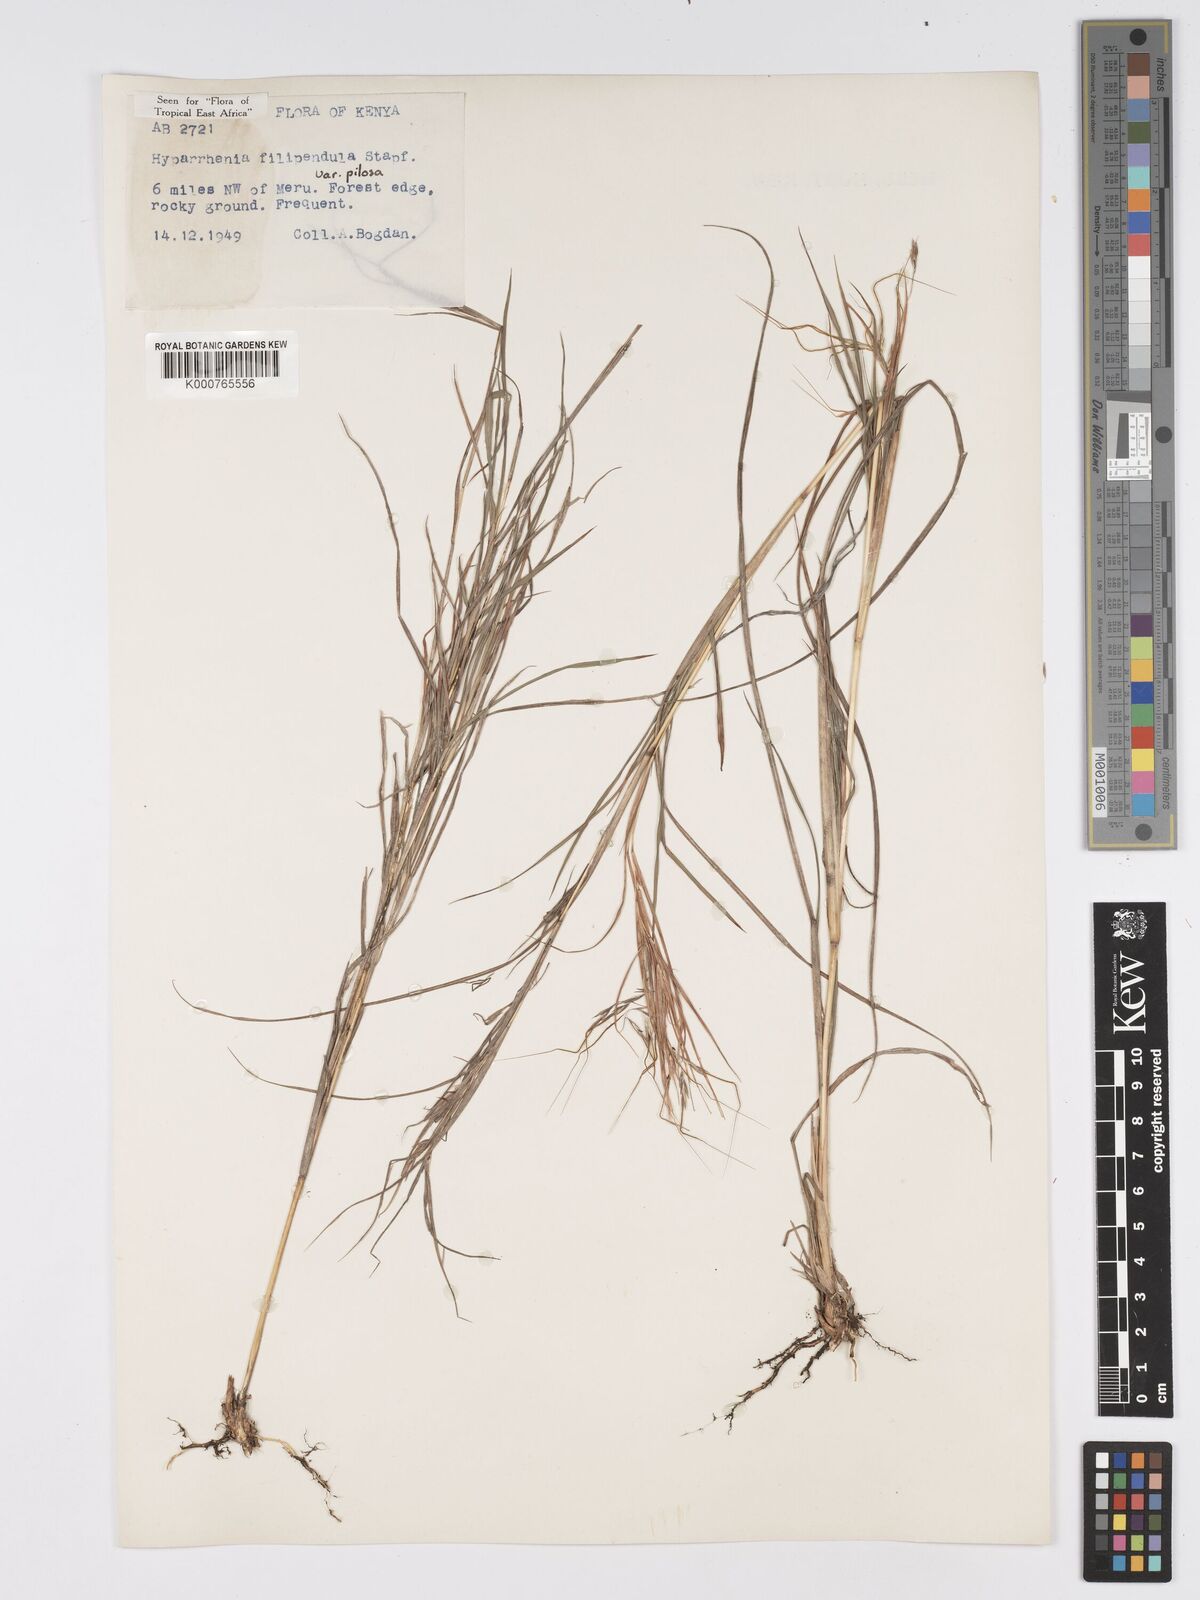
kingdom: Plantae
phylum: Tracheophyta
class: Liliopsida
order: Poales
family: Poaceae
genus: Hyparrhenia
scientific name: Hyparrhenia filipendula
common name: Tambookie grass
